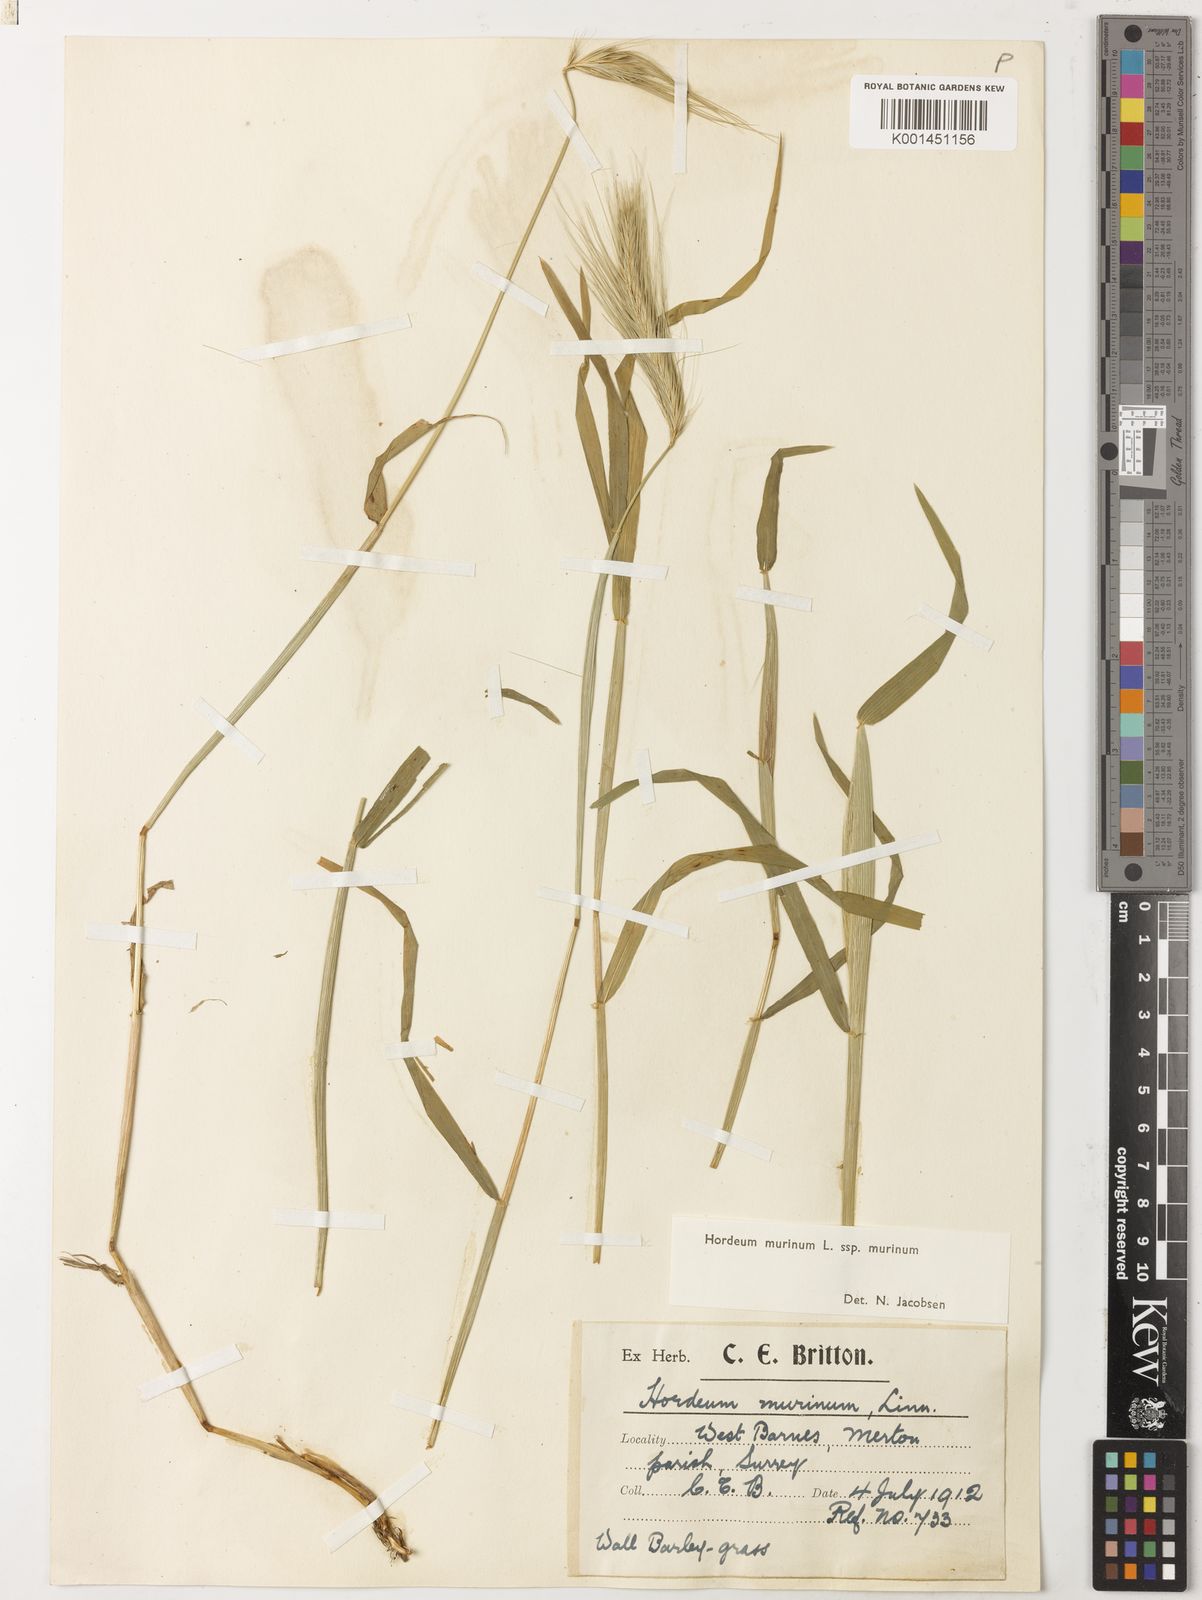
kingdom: Plantae
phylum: Tracheophyta
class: Liliopsida
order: Poales
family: Poaceae
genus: Hordeum
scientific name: Hordeum murinum
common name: Wall barley
